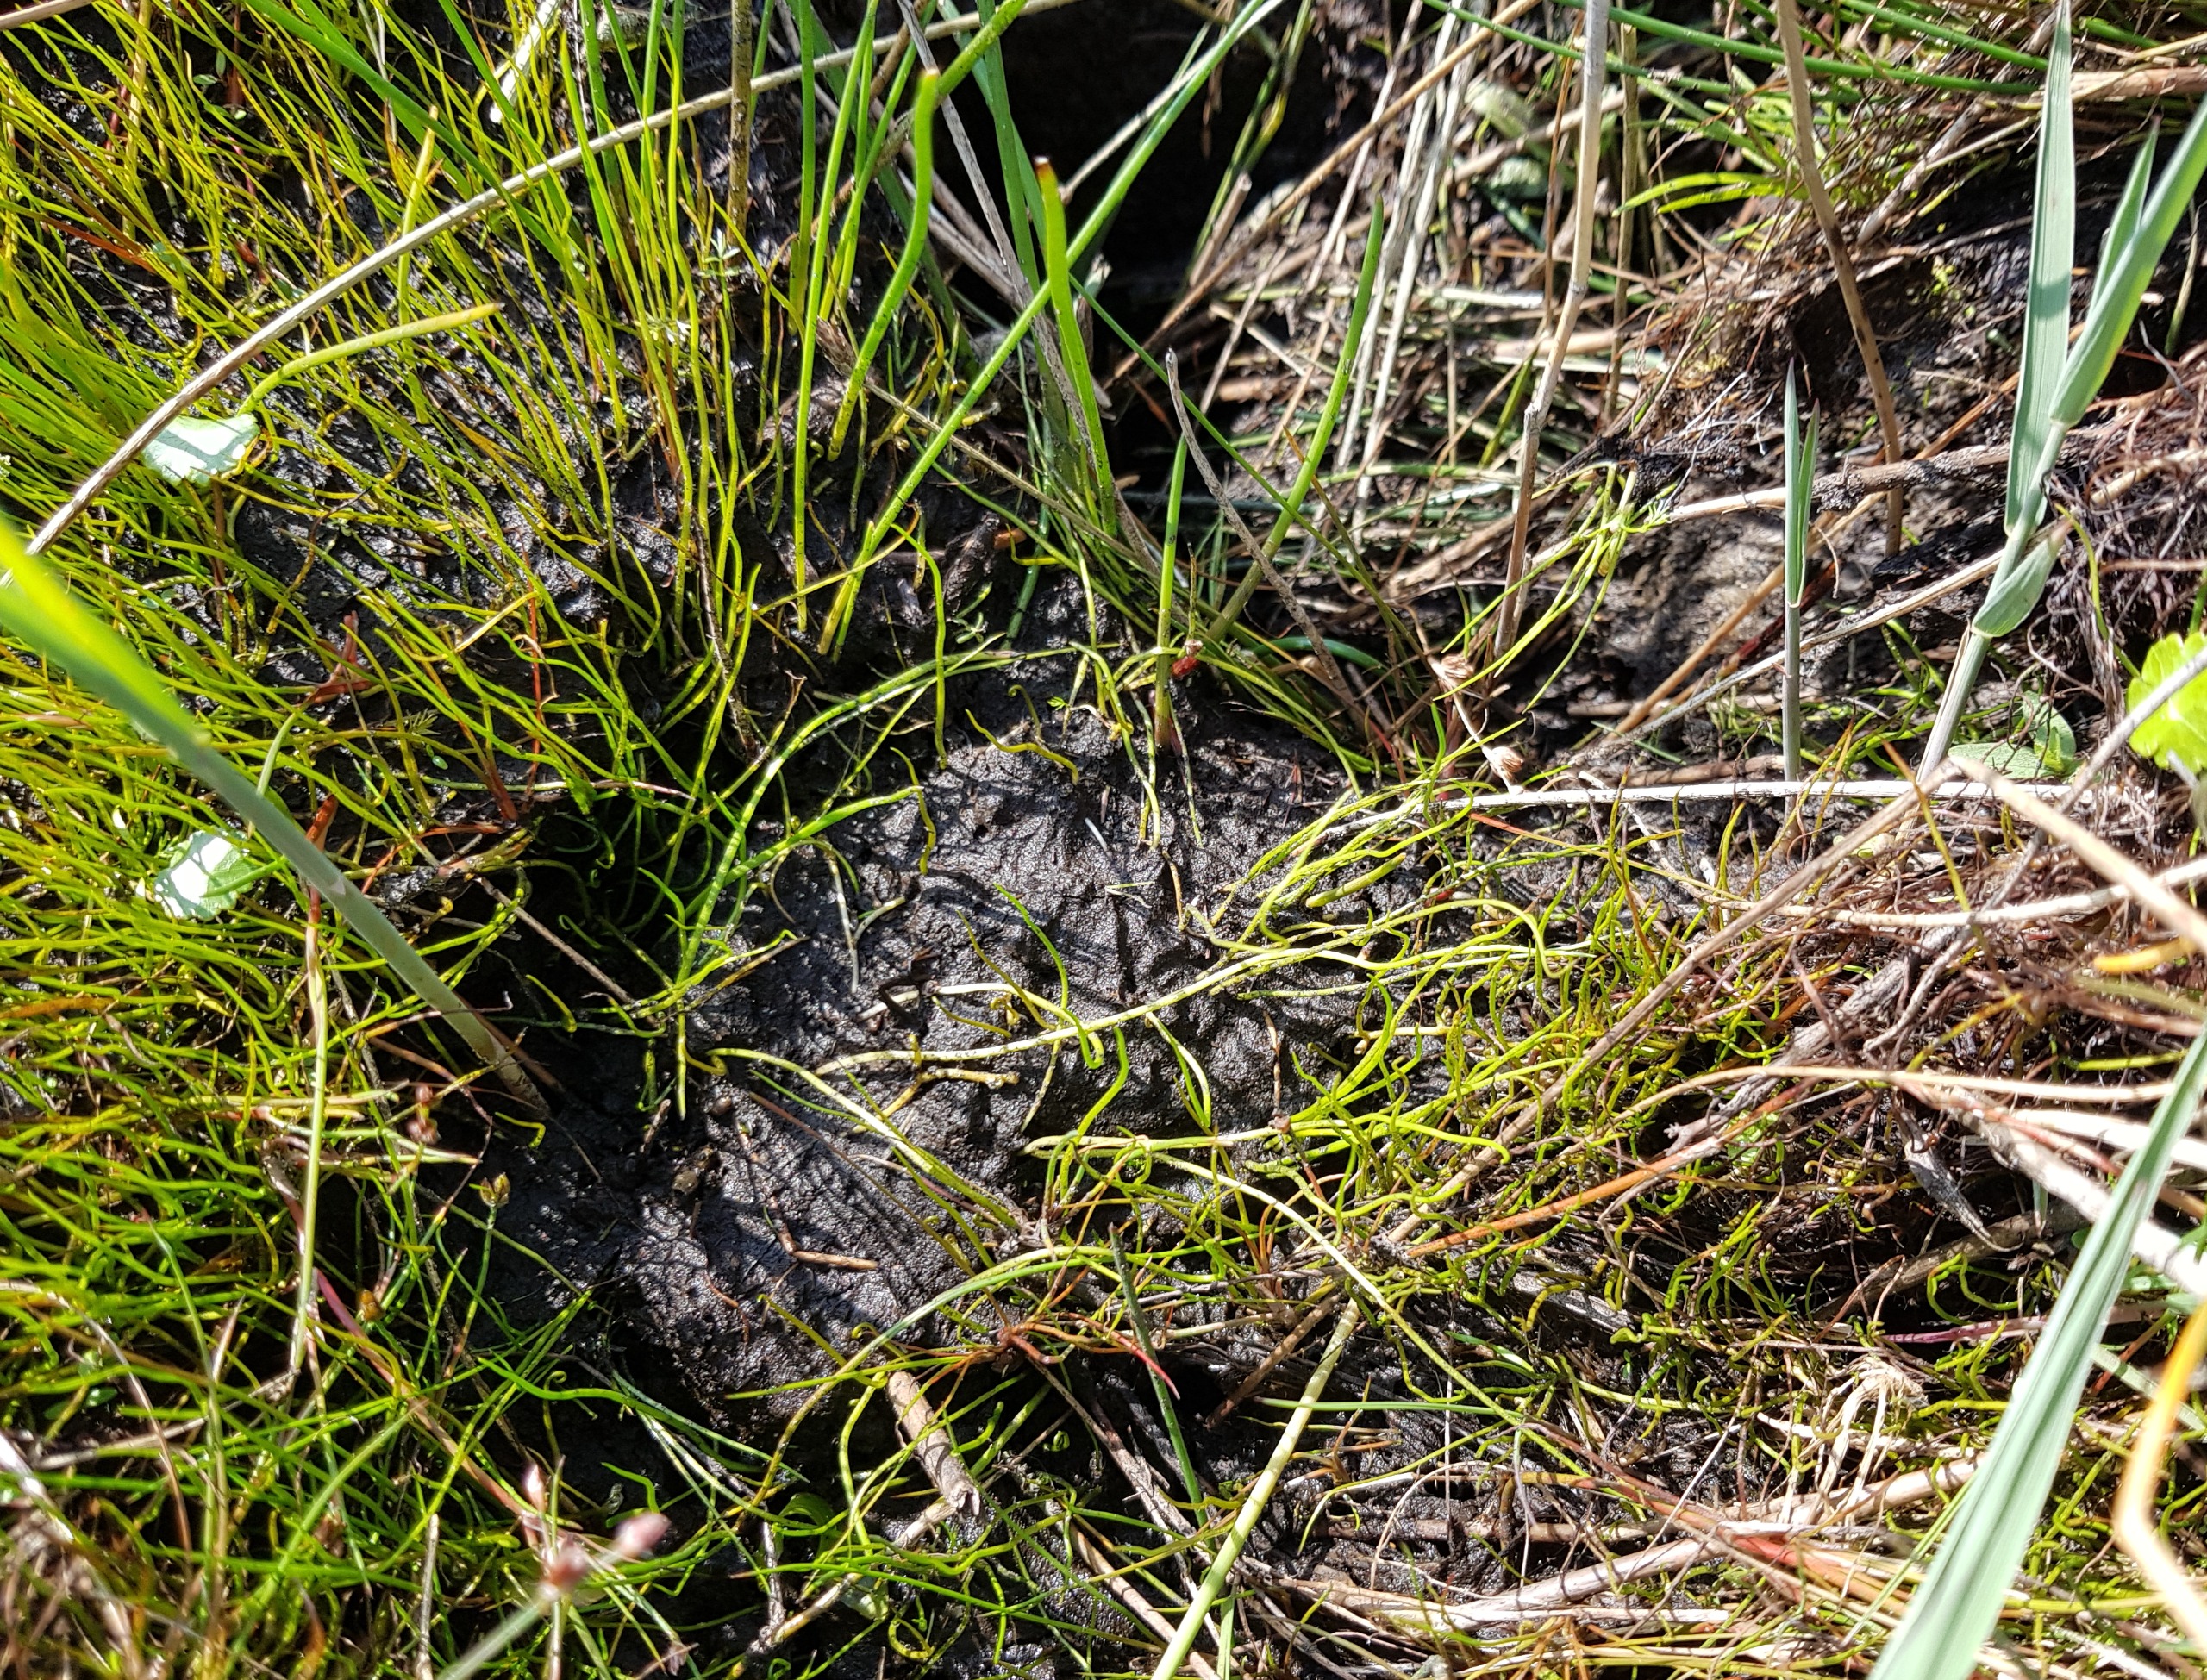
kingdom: Plantae
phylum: Tracheophyta
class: Polypodiopsida
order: Salviniales
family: Marsileaceae
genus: Pilularia
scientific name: Pilularia globulifera
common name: Pilledrager
